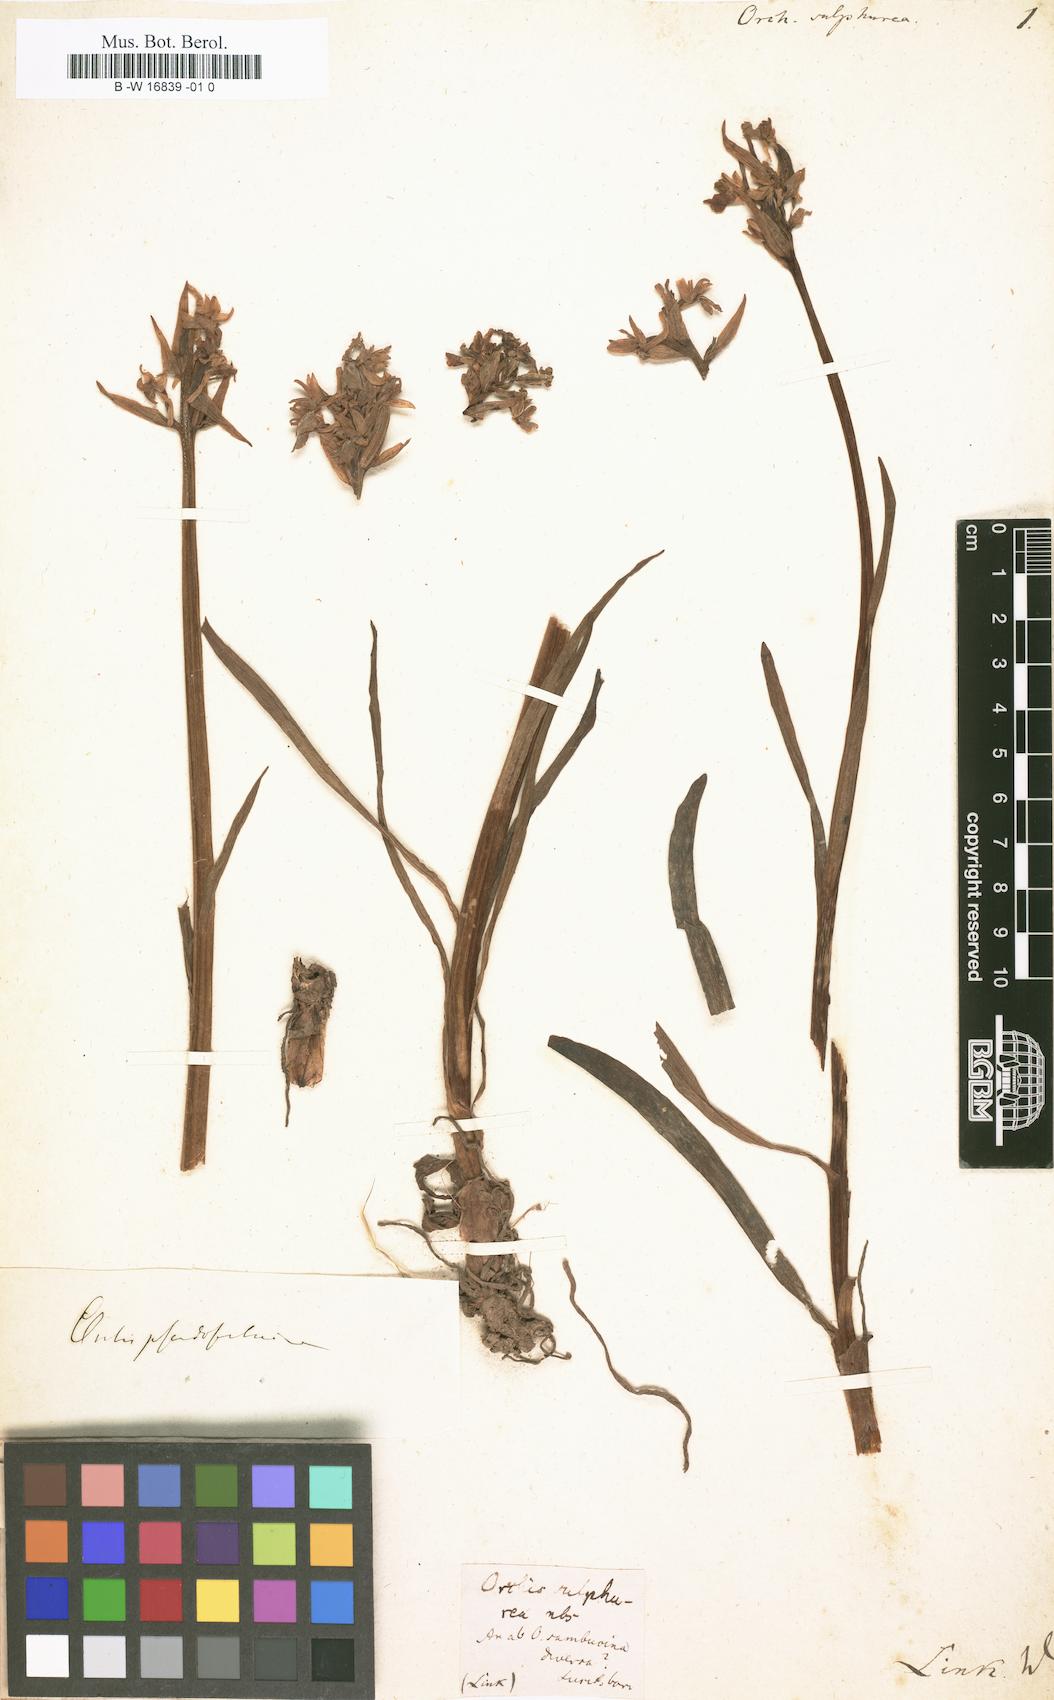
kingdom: Plantae
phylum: Tracheophyta
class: Liliopsida
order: Asparagales
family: Orchidaceae
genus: Orchis
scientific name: Orchis sulphurea
